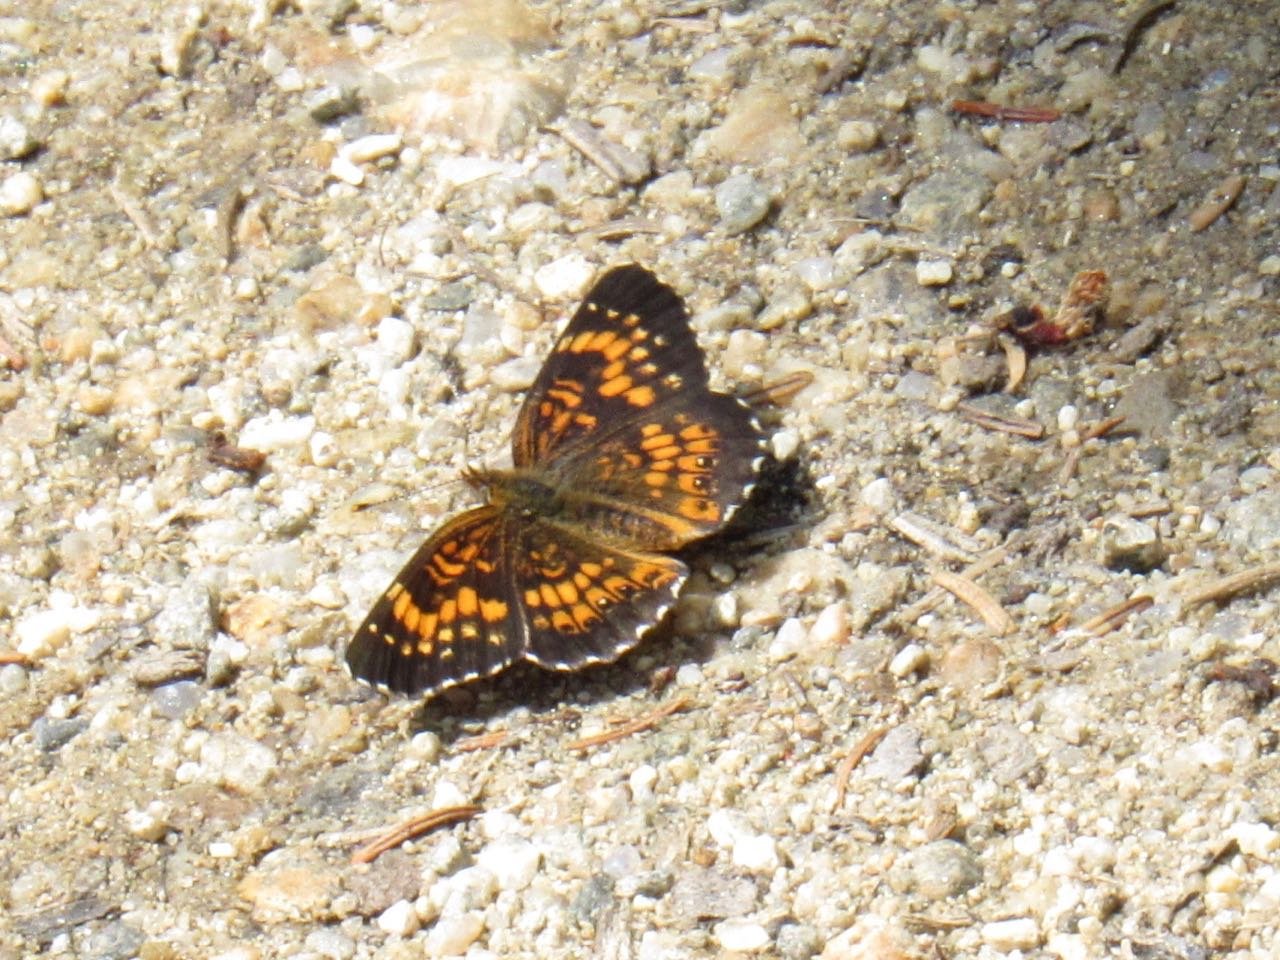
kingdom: Animalia
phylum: Arthropoda
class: Insecta
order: Lepidoptera
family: Nymphalidae
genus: Chlosyne
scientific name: Chlosyne harrisii
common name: Harris's Checkerspot
